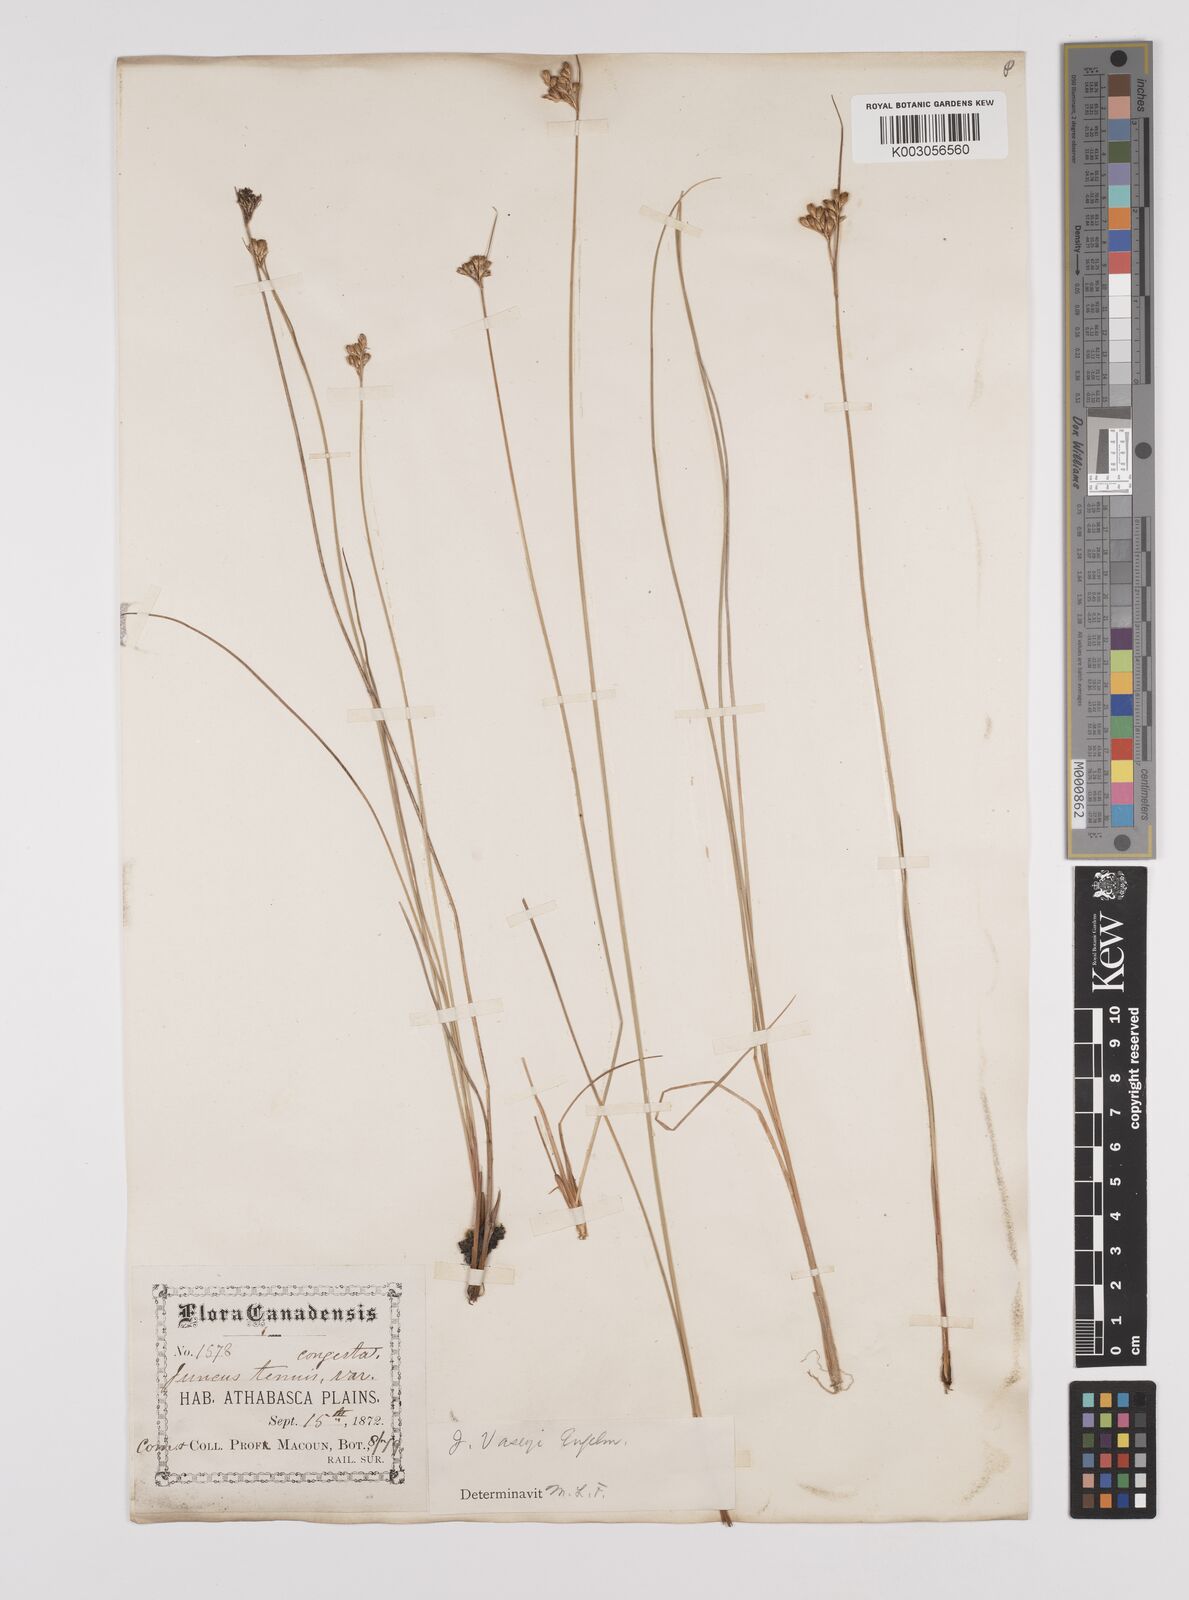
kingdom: Plantae
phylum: Tracheophyta
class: Liliopsida
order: Poales
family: Juncaceae
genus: Juncus
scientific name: Juncus vaseyi
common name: Big-headed rush
